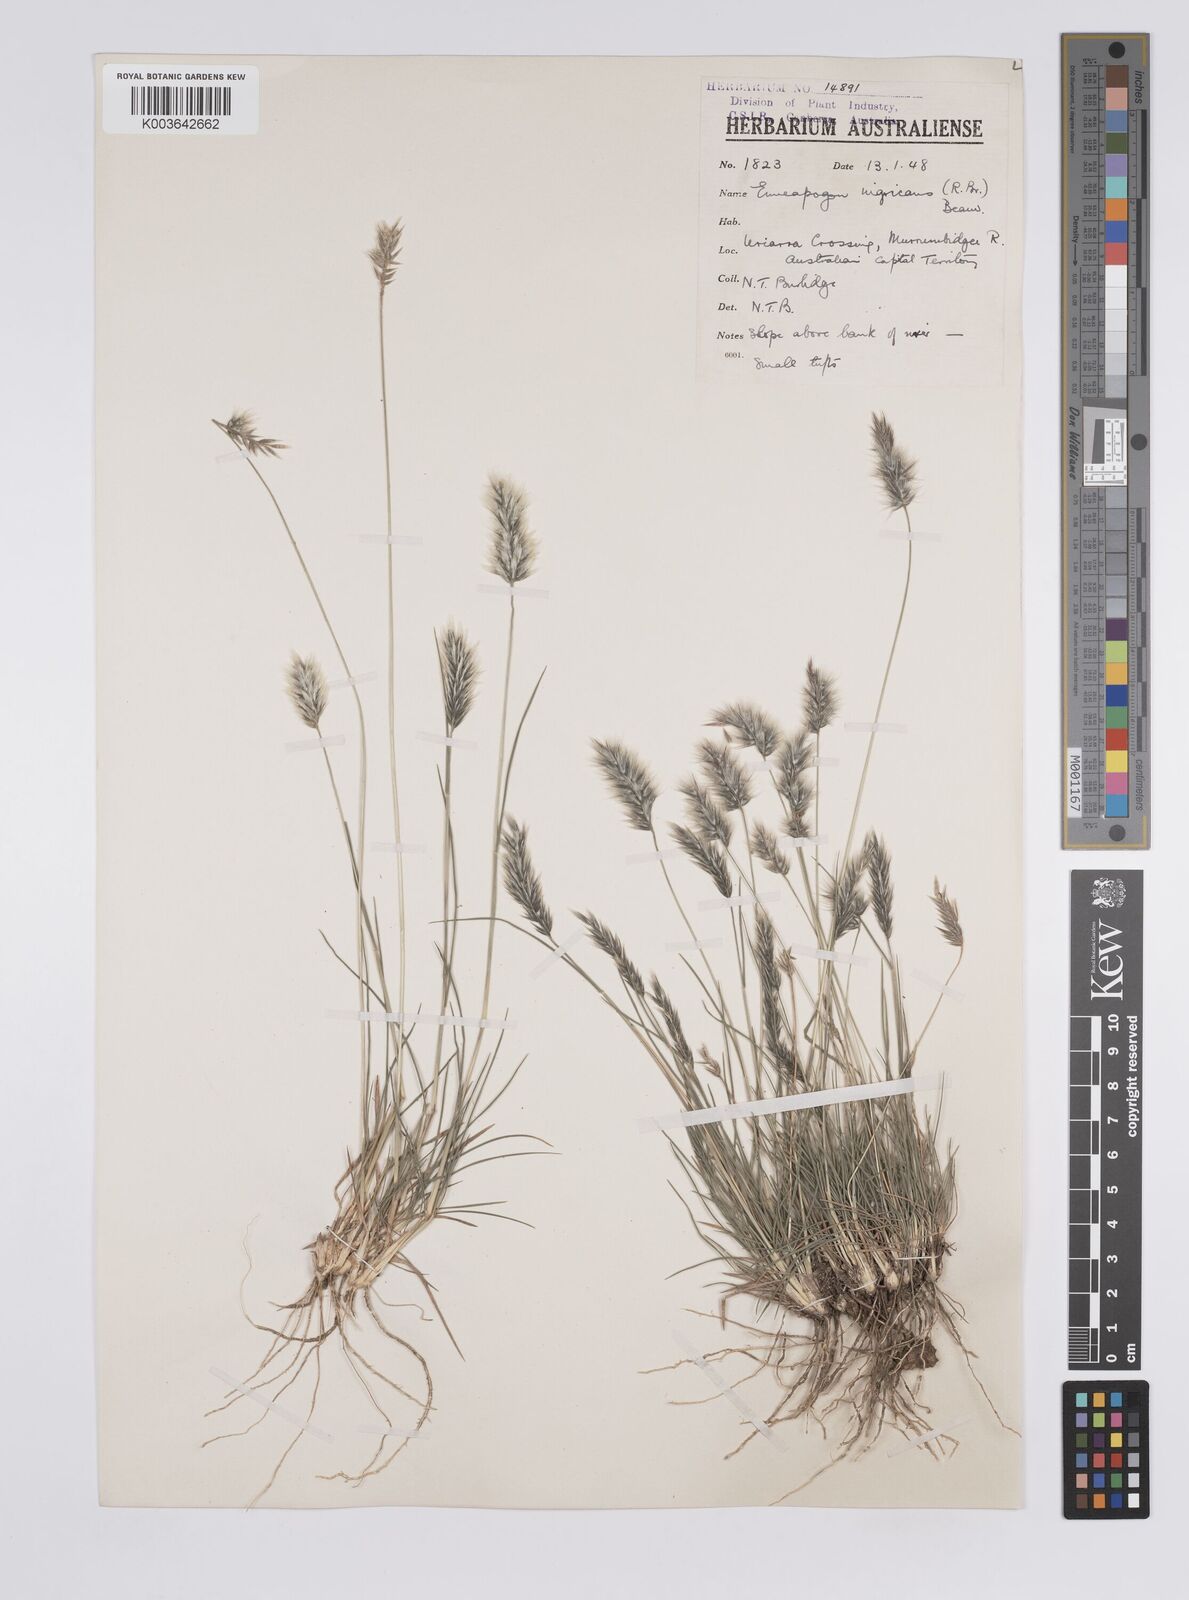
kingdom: Plantae
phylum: Tracheophyta
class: Liliopsida
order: Poales
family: Poaceae
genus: Enneapogon
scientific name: Enneapogon nigricans
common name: Pappus grass
